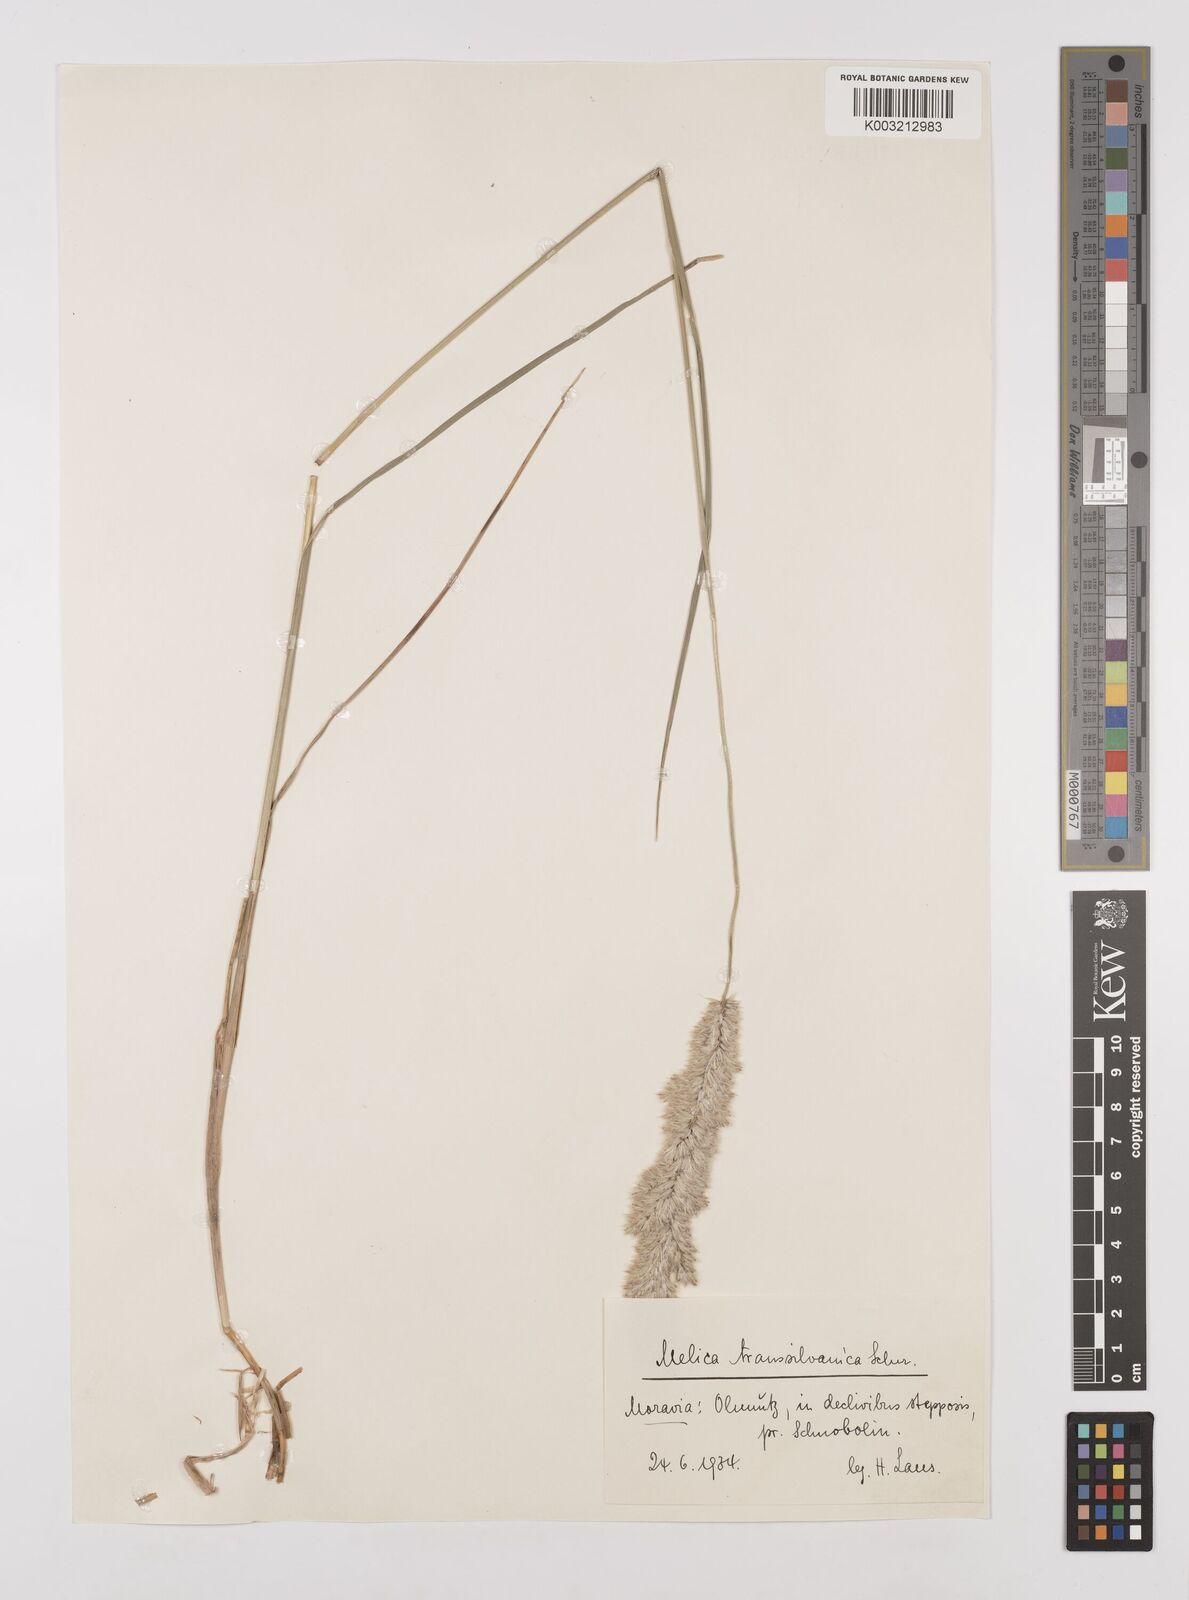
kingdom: Plantae
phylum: Tracheophyta
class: Liliopsida
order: Poales
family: Poaceae
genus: Melica
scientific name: Melica transsilvanica
